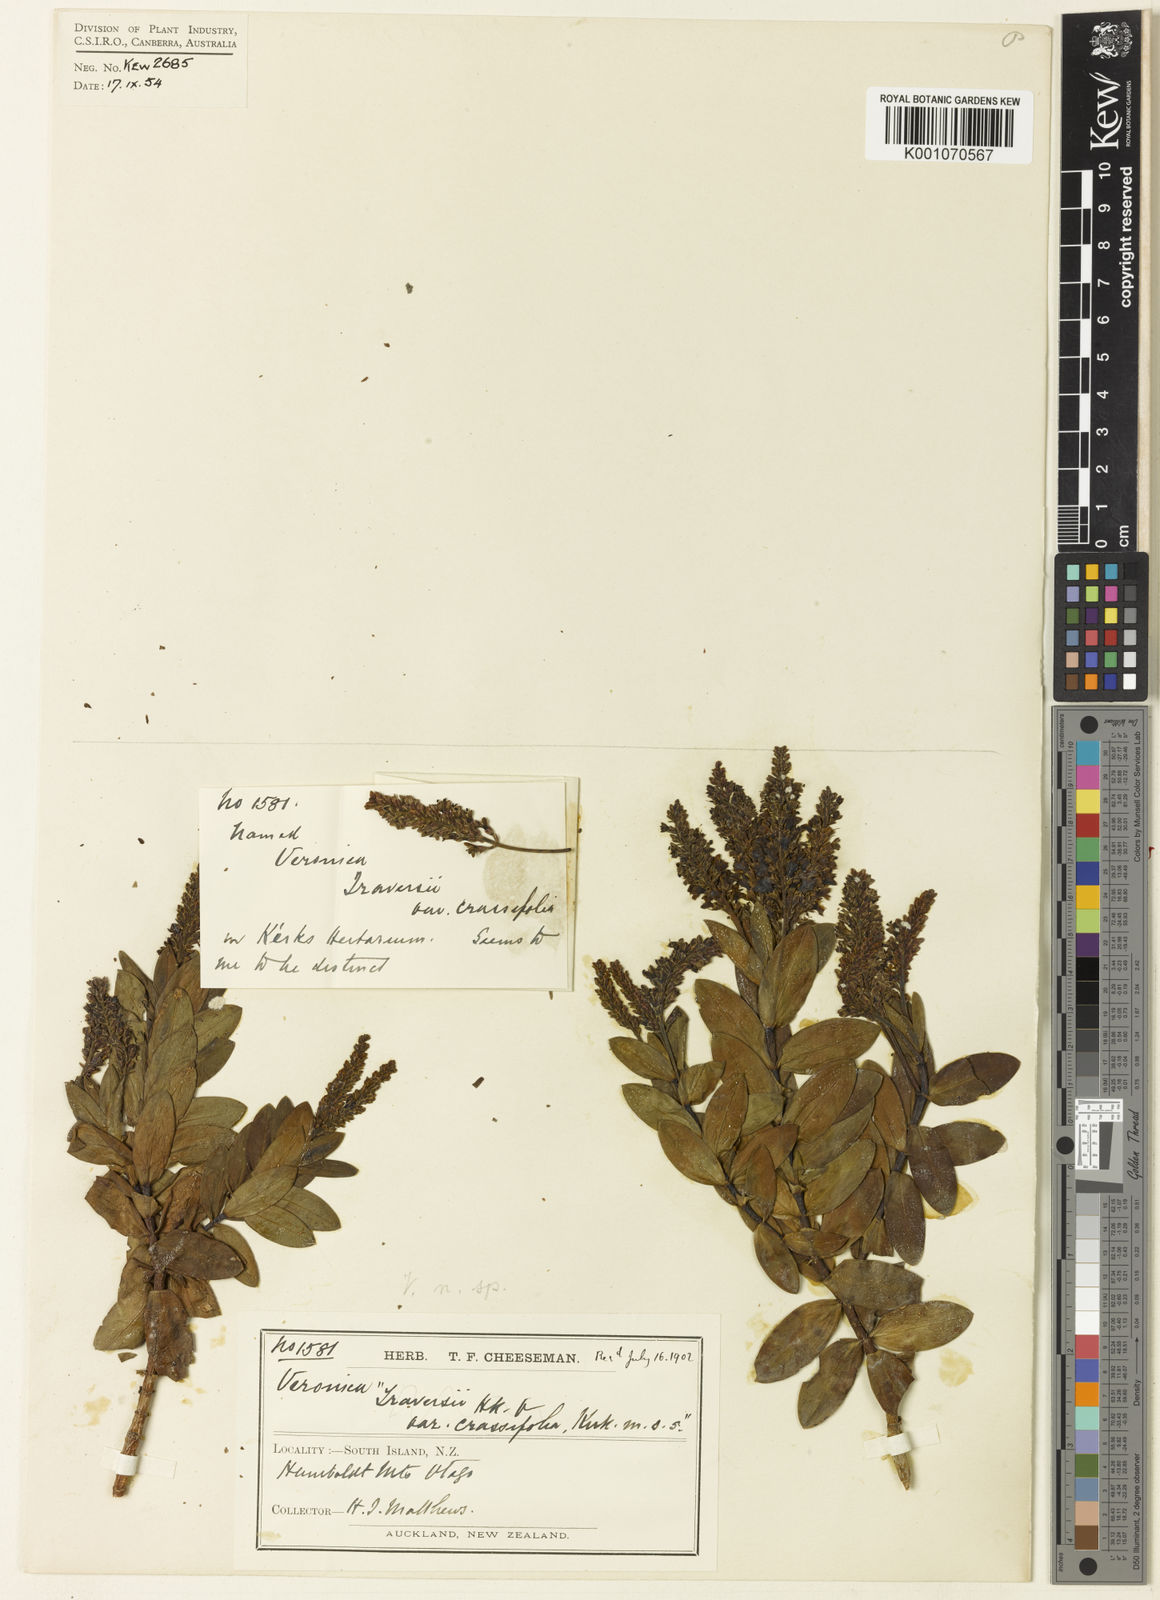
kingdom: Plantae
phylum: Tracheophyta
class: Magnoliopsida
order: Lamiales
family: Plantaginaceae
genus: Veronica
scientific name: Veronica matthewsii
